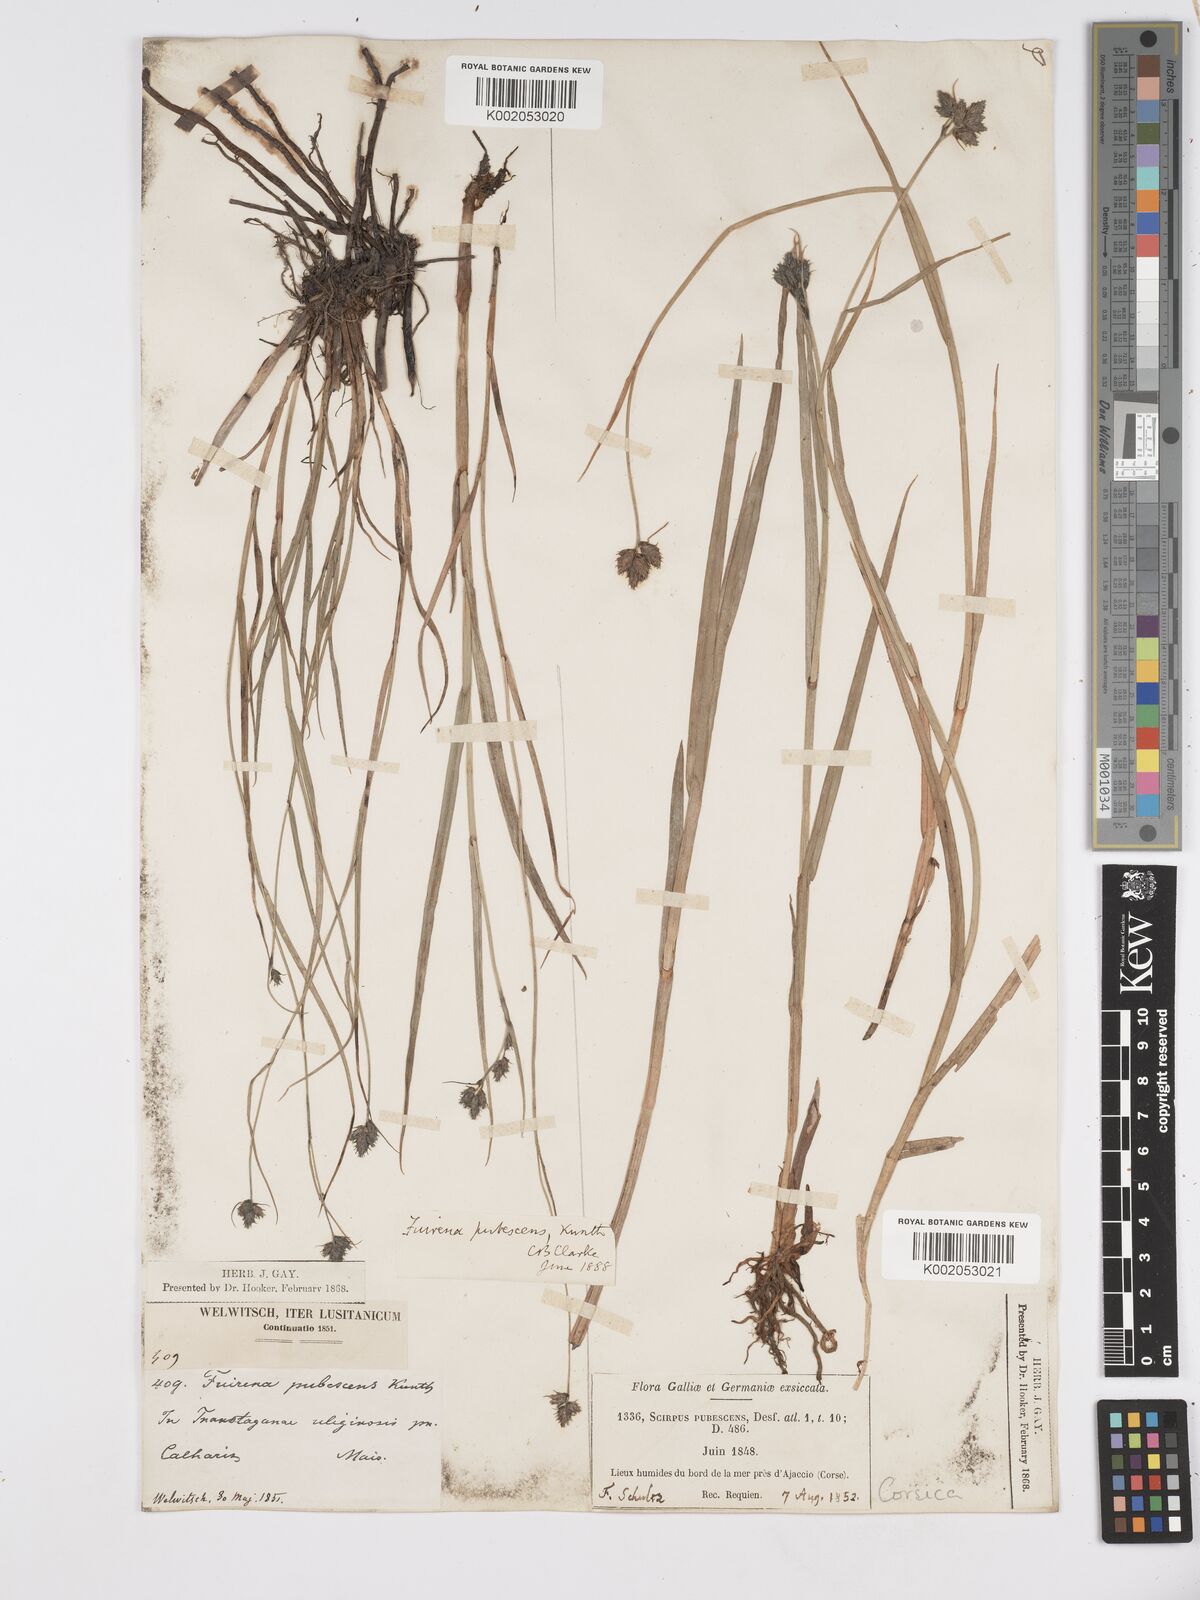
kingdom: Plantae
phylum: Tracheophyta
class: Liliopsida
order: Poales
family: Cyperaceae
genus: Fuirena
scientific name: Fuirena pubescens
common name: Hairy sedge
